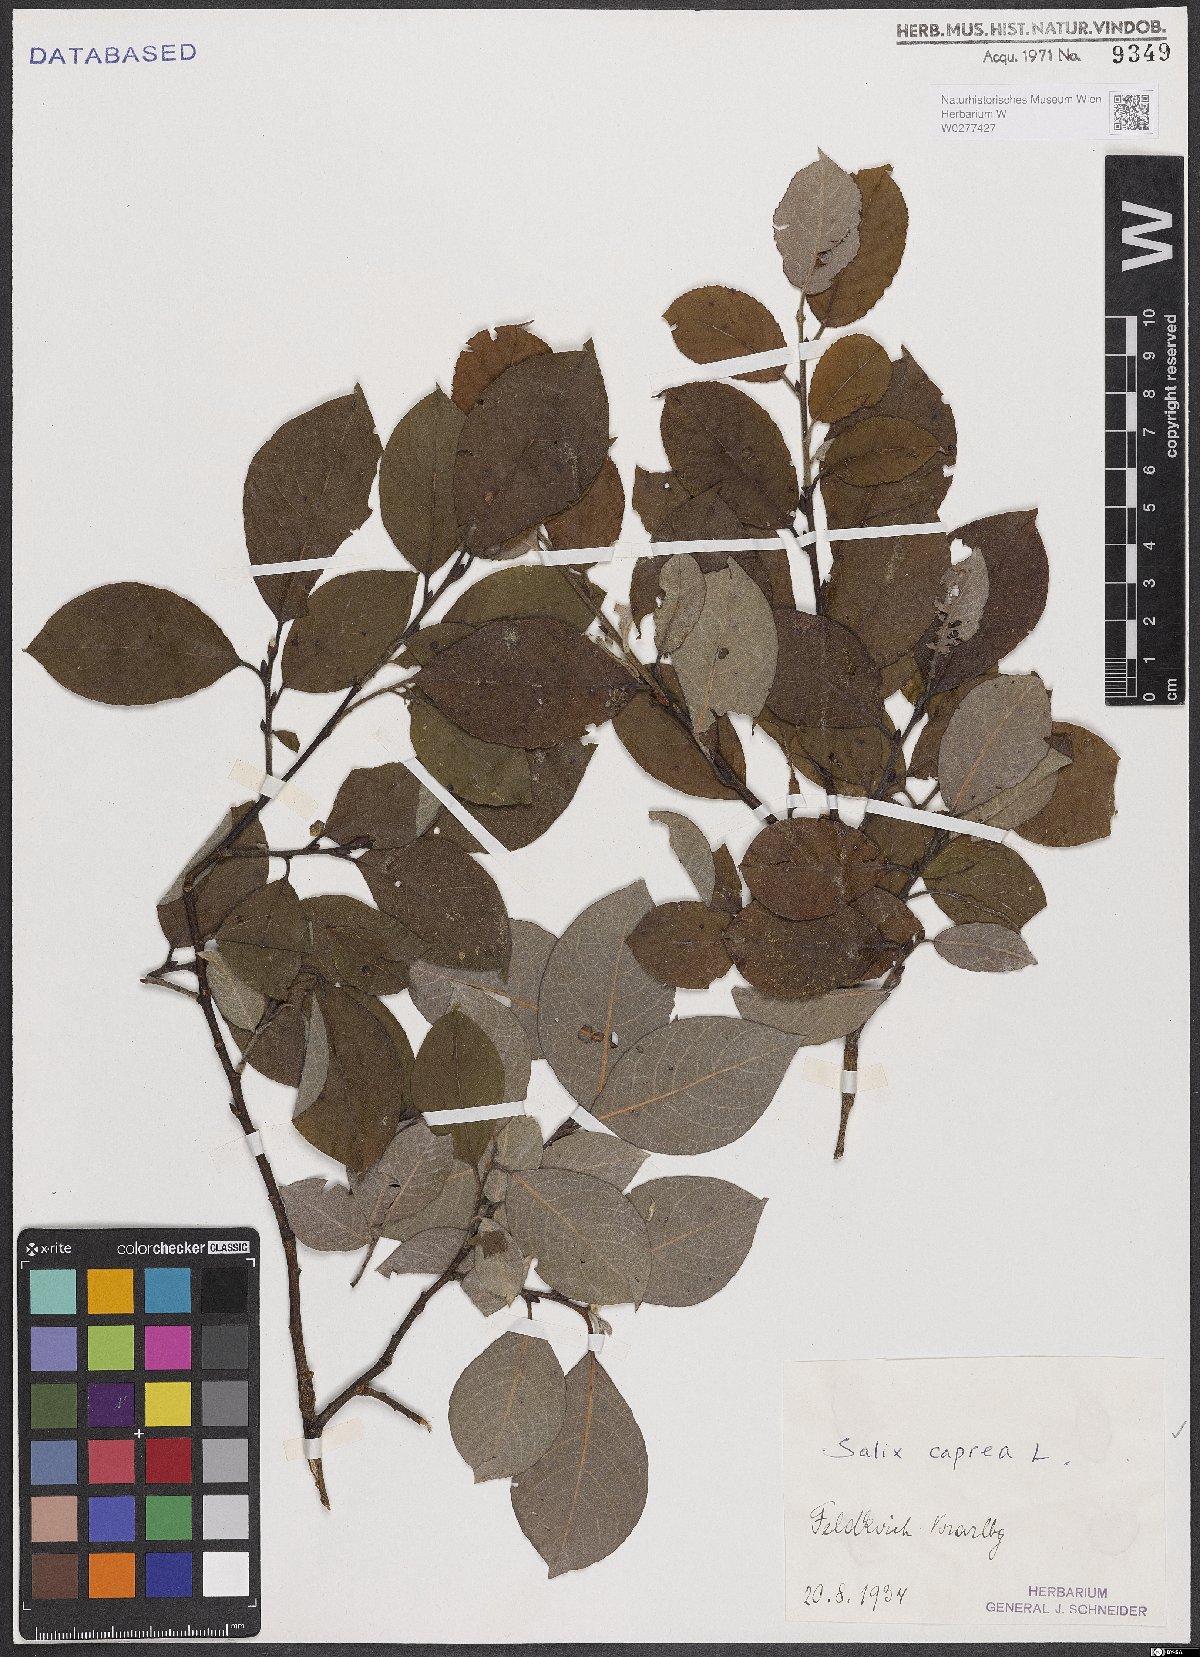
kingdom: Plantae
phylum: Tracheophyta
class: Magnoliopsida
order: Malpighiales
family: Salicaceae
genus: Salix
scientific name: Salix caprea
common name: Goat willow
